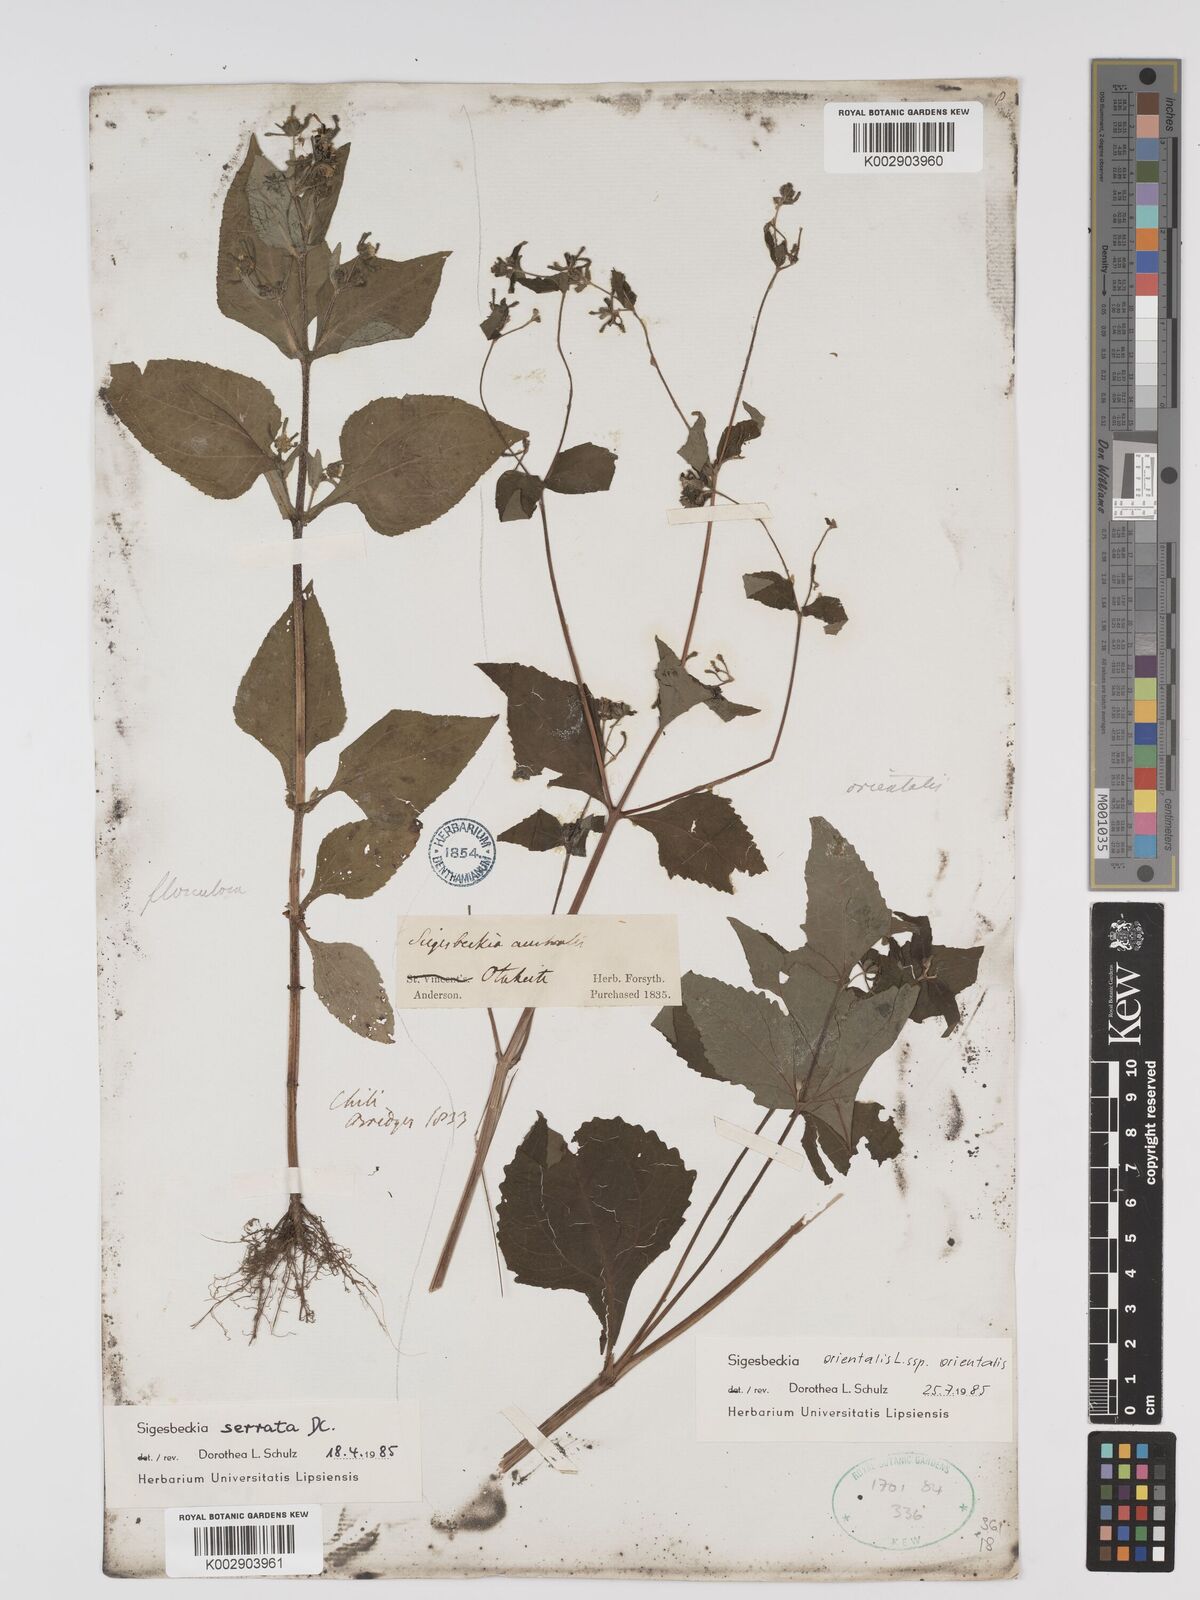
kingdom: Plantae
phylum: Tracheophyta
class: Magnoliopsida
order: Asterales
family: Asteraceae
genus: Sigesbeckia
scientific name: Sigesbeckia orientalis
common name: Eastern st paul's-wort
